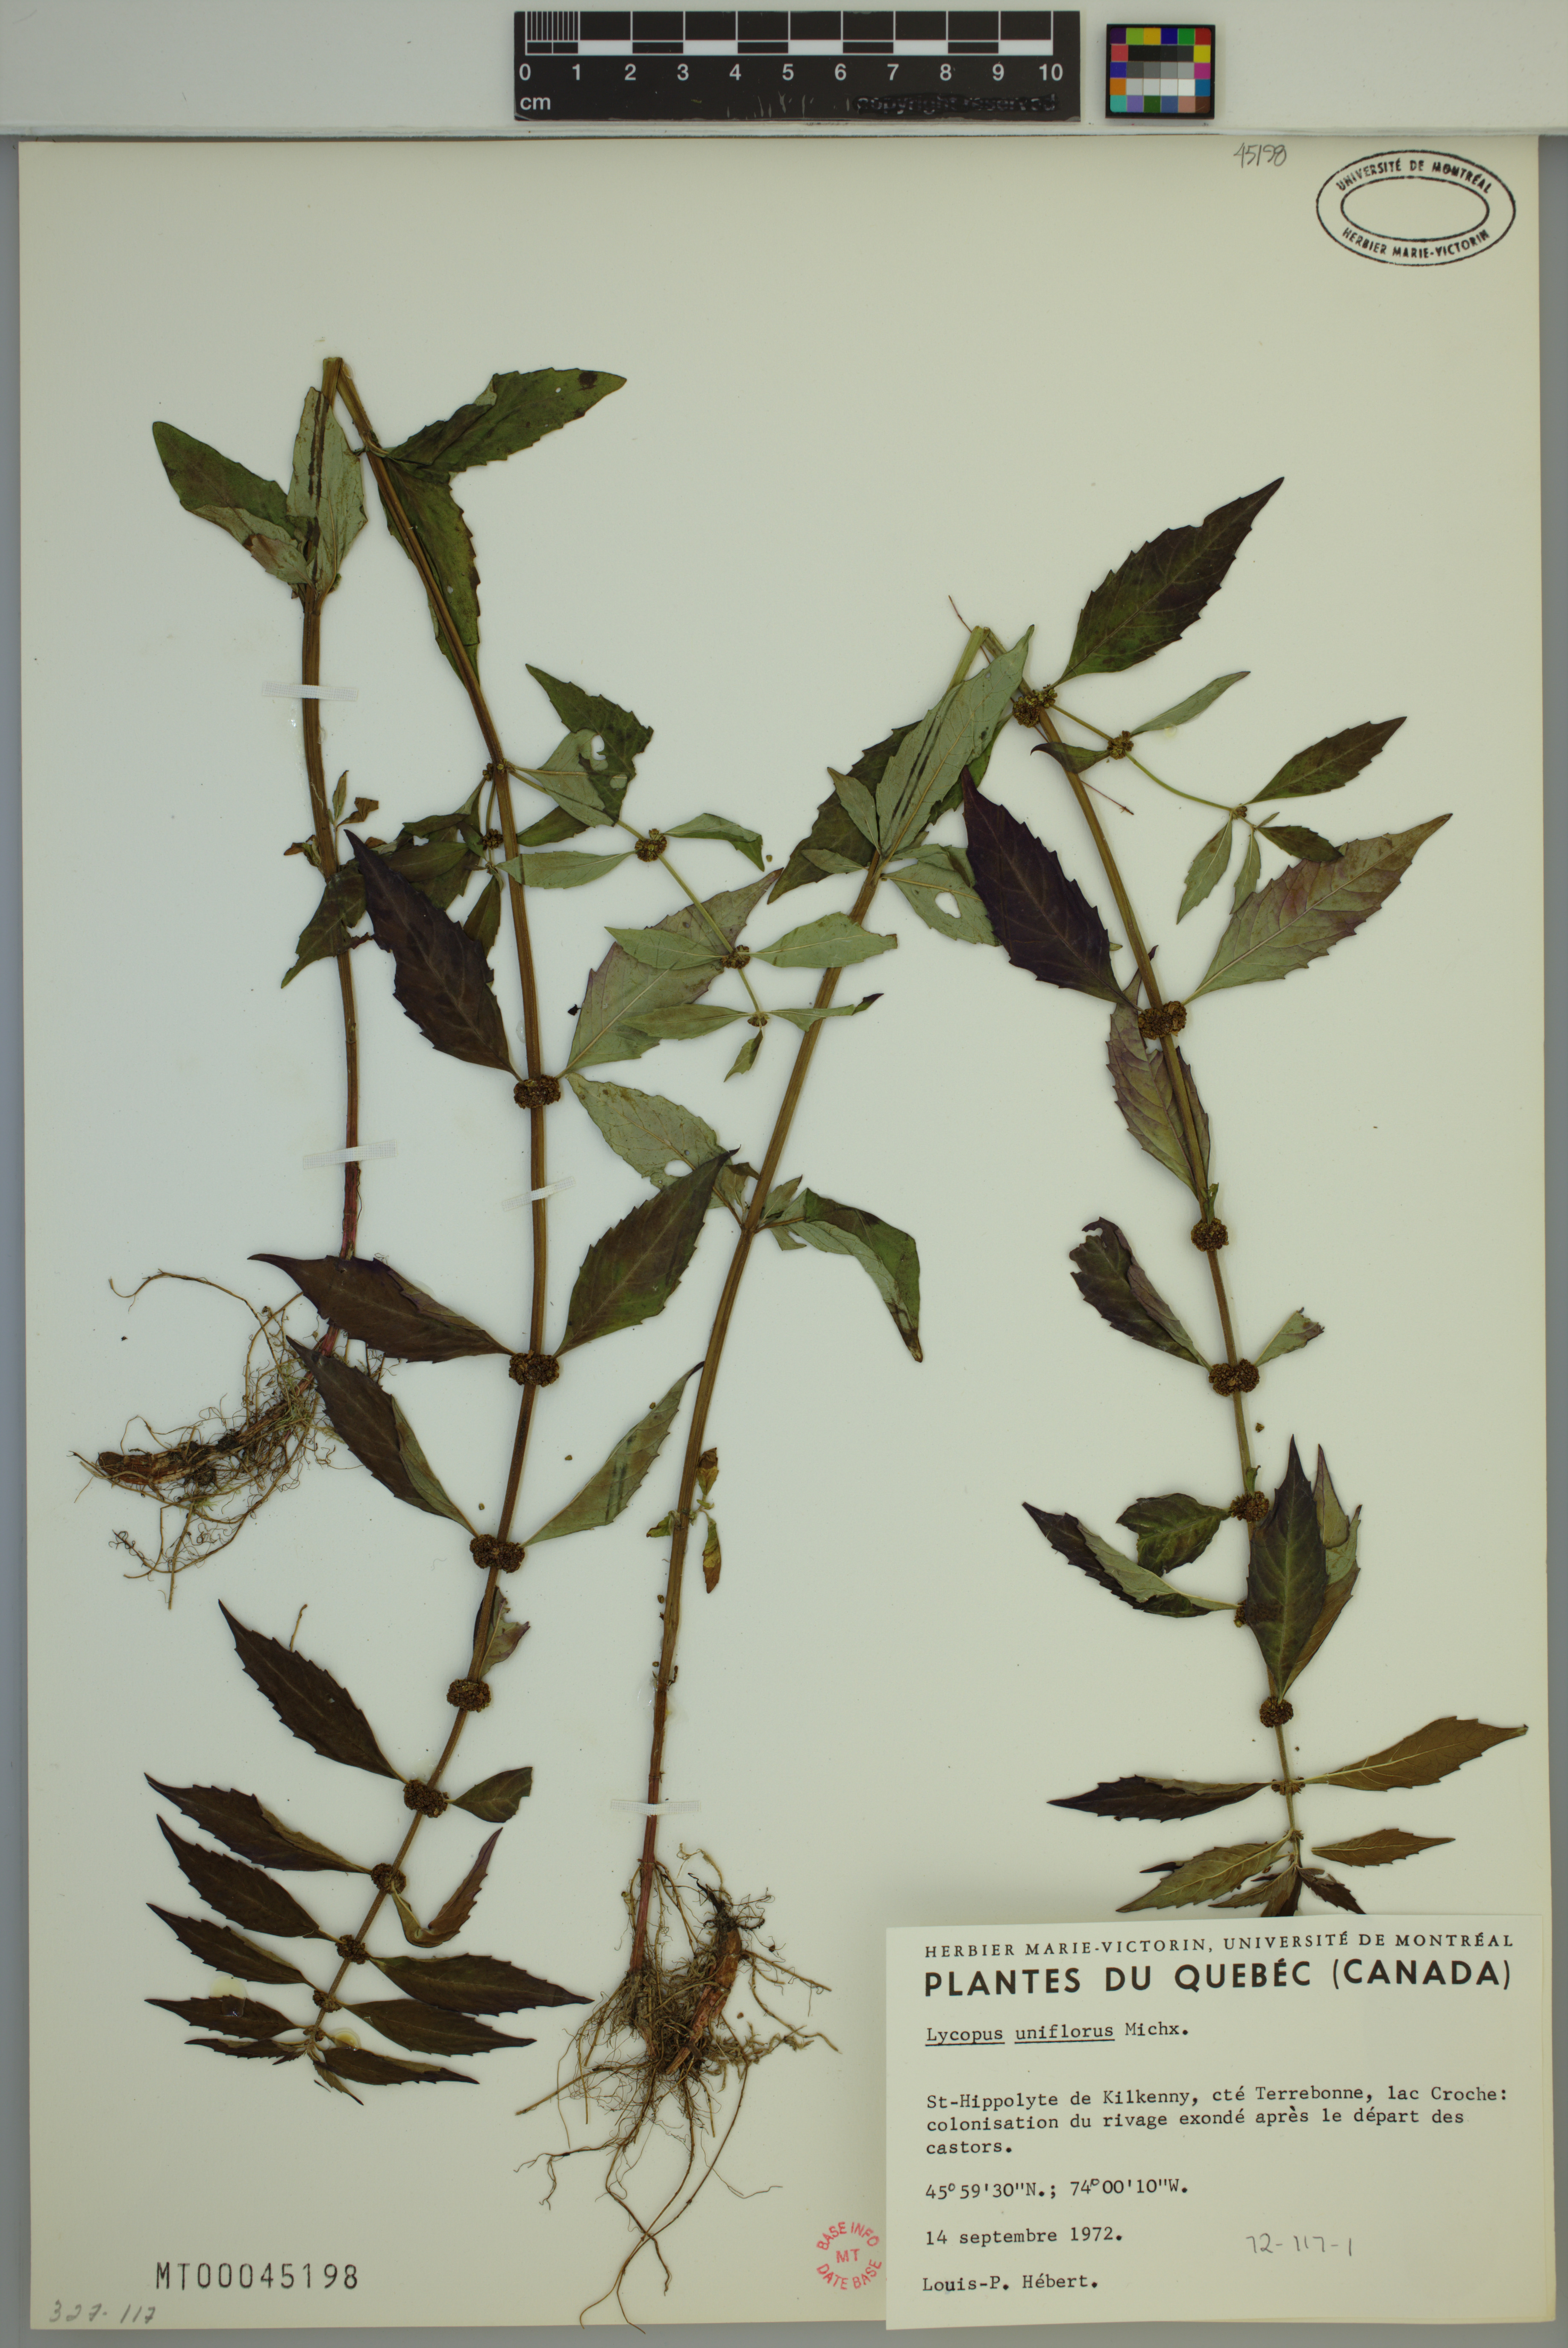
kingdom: Plantae
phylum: Tracheophyta
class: Magnoliopsida
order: Lamiales
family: Lamiaceae
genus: Lycopus
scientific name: Lycopus uniflorus
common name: Northern bugleweed
